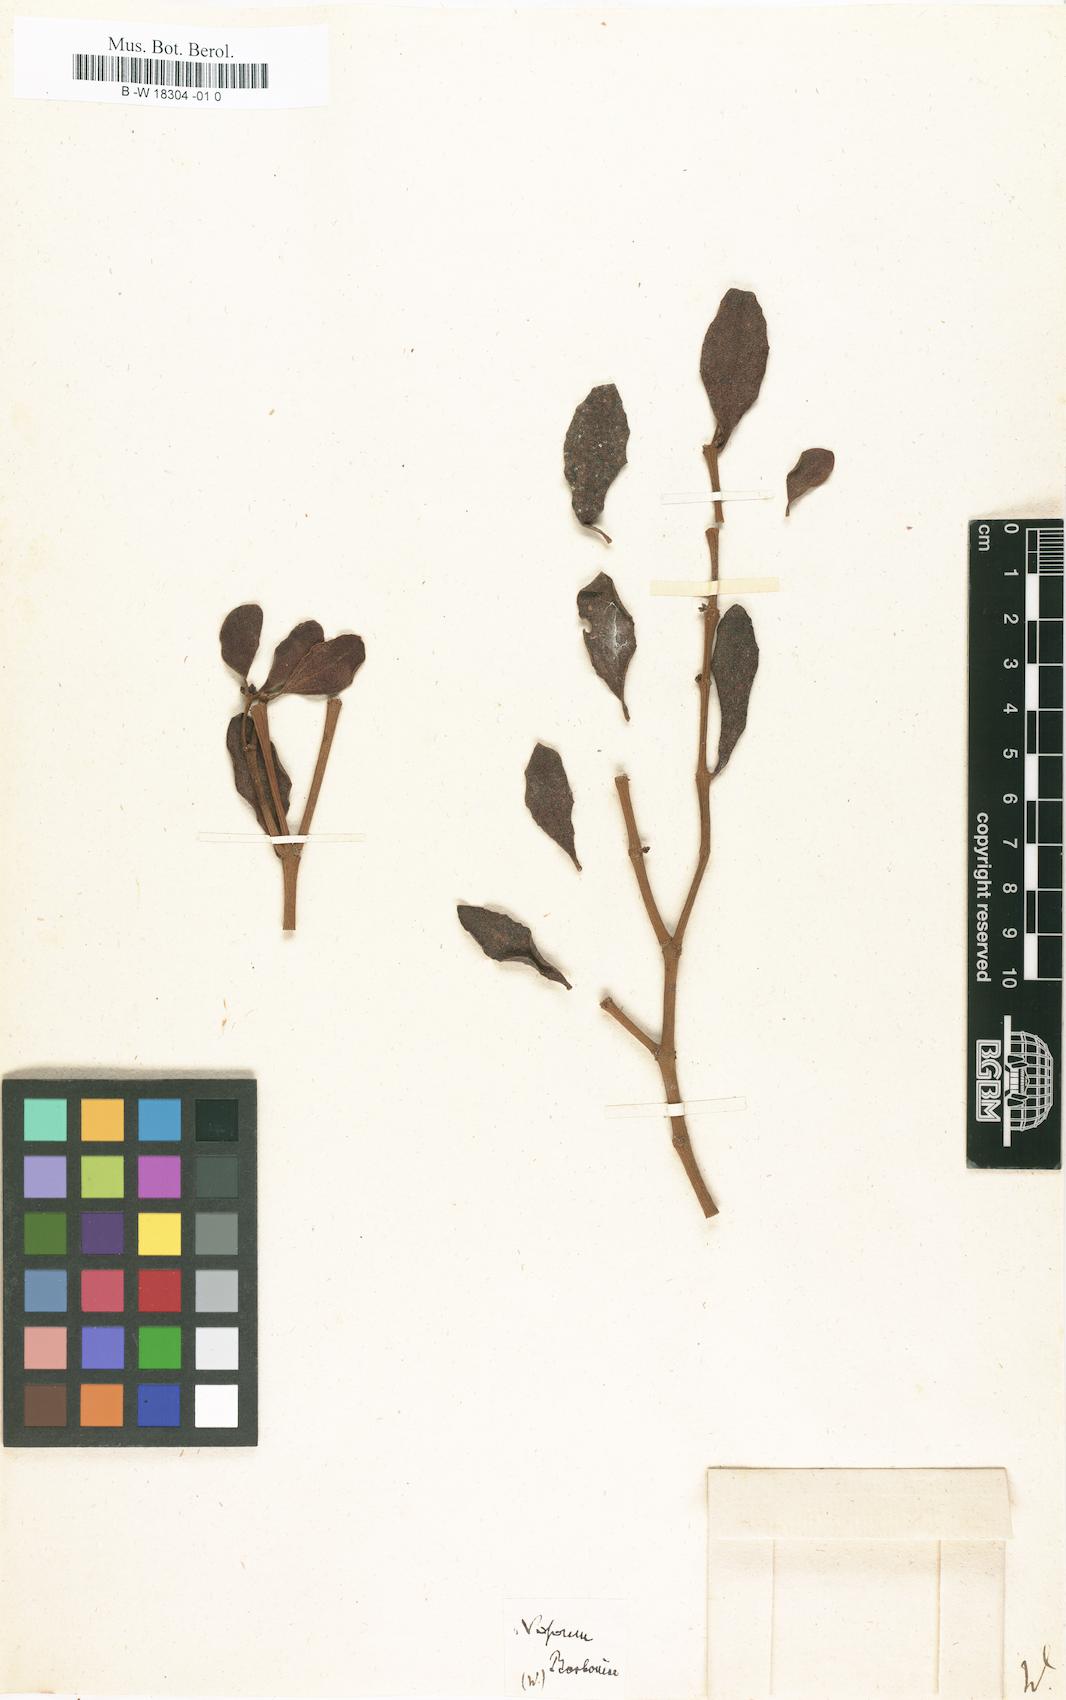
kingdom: Plantae
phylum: Tracheophyta
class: Magnoliopsida
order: Santalales
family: Viscaceae
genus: Viscum
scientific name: Viscum
